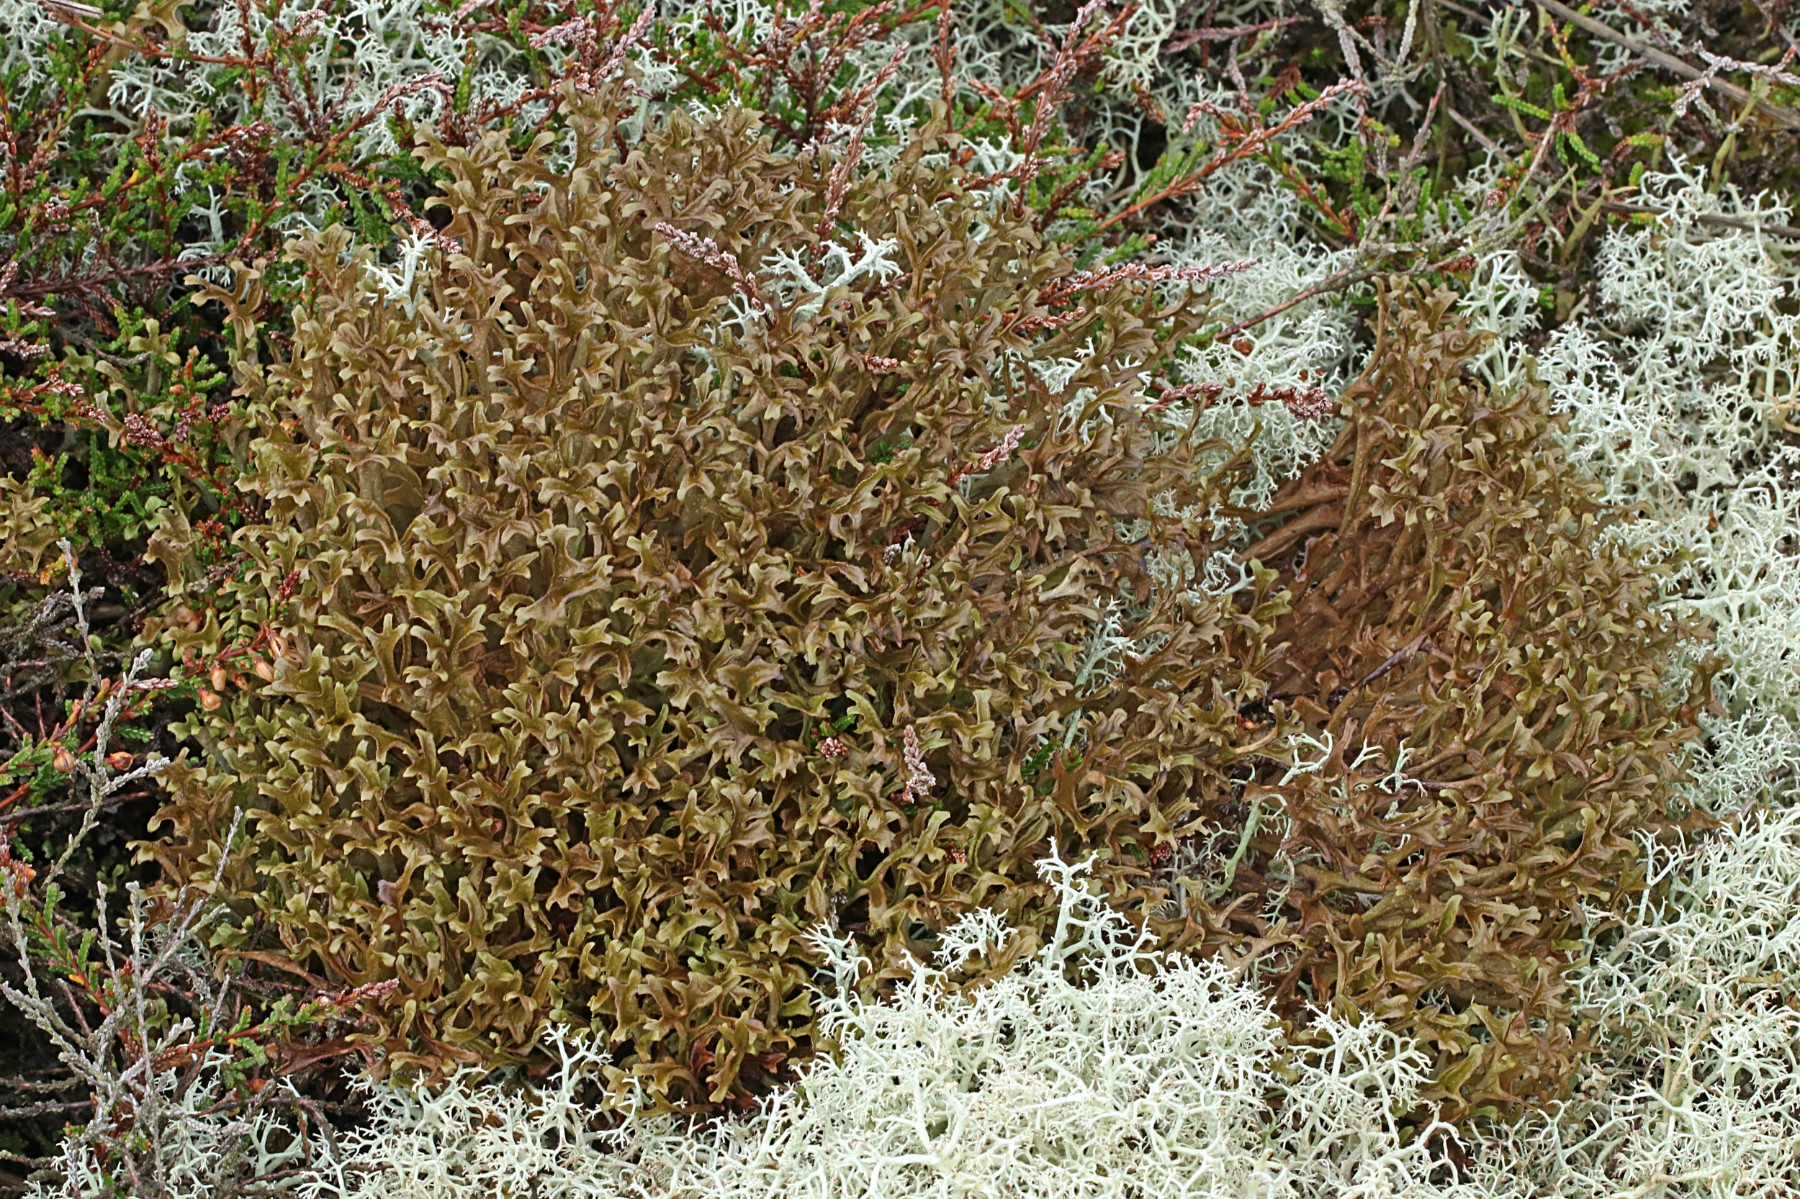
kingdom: Fungi
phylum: Ascomycota
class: Lecanoromycetes
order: Lecanorales
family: Parmeliaceae
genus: Cetraria
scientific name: Cetraria islandica
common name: islandsk kruslav
